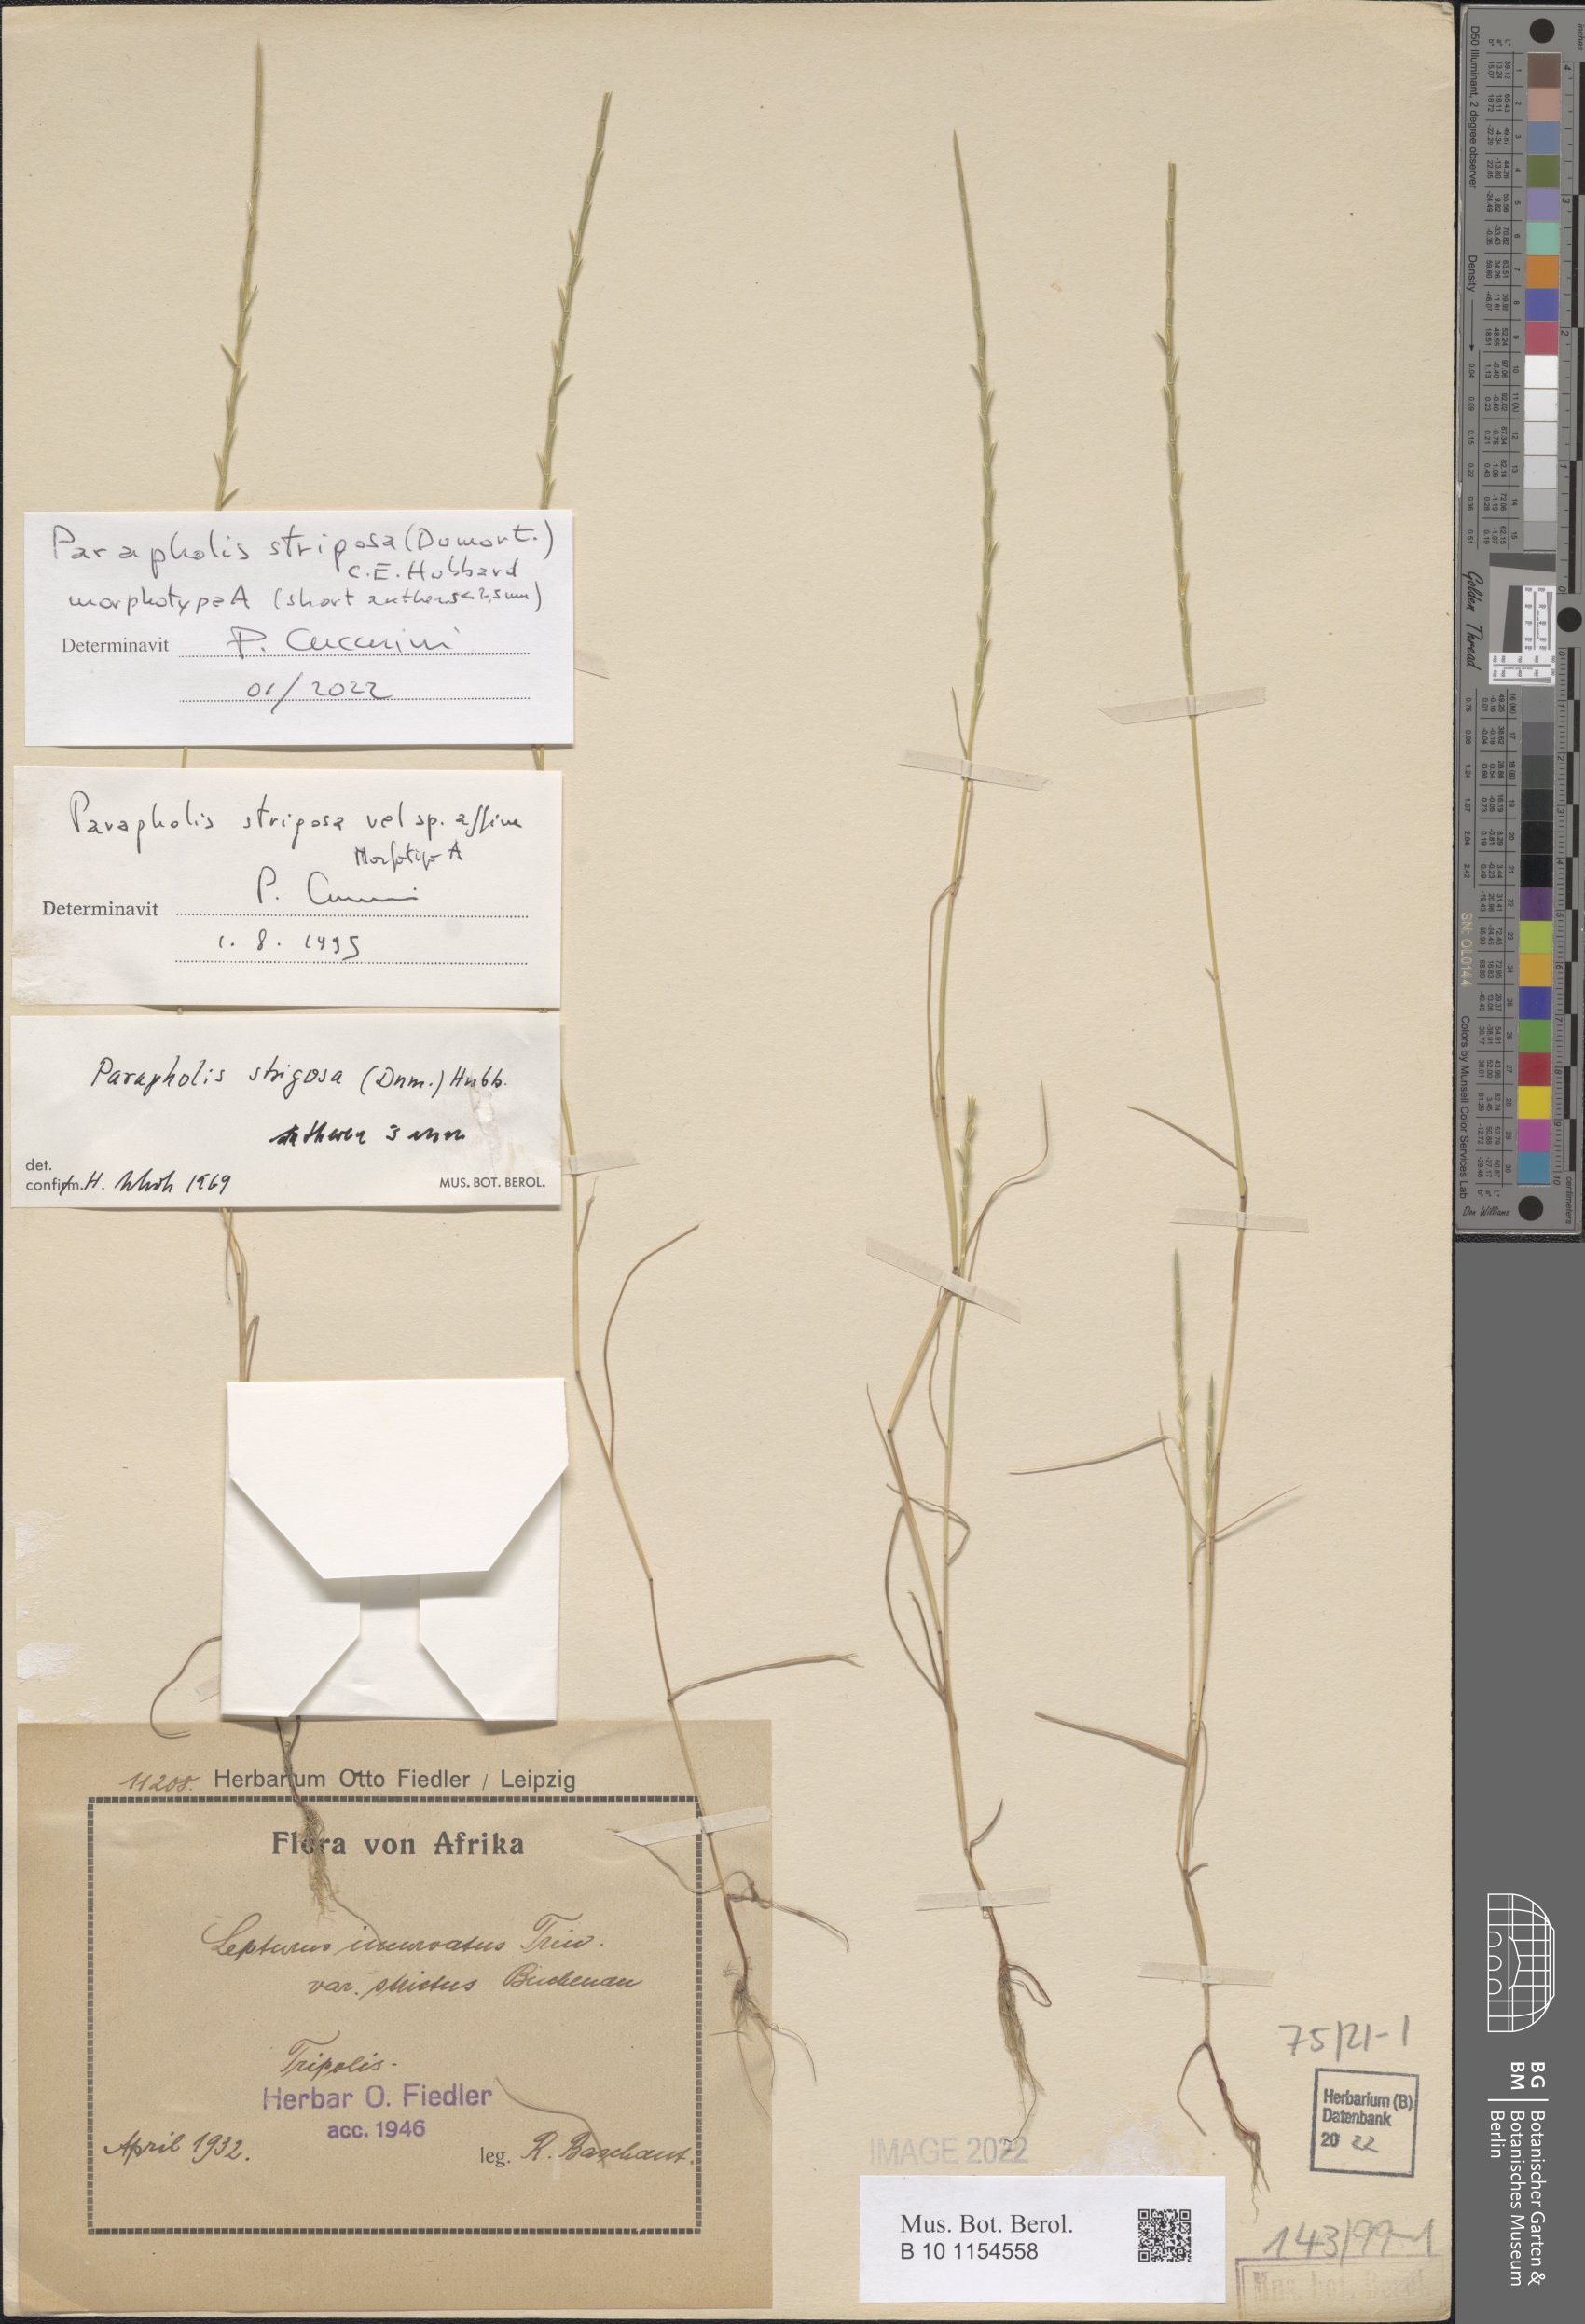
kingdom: Plantae
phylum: Tracheophyta
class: Liliopsida
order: Poales
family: Poaceae
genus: Parapholis
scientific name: Parapholis strigosa
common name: Hard-grass
